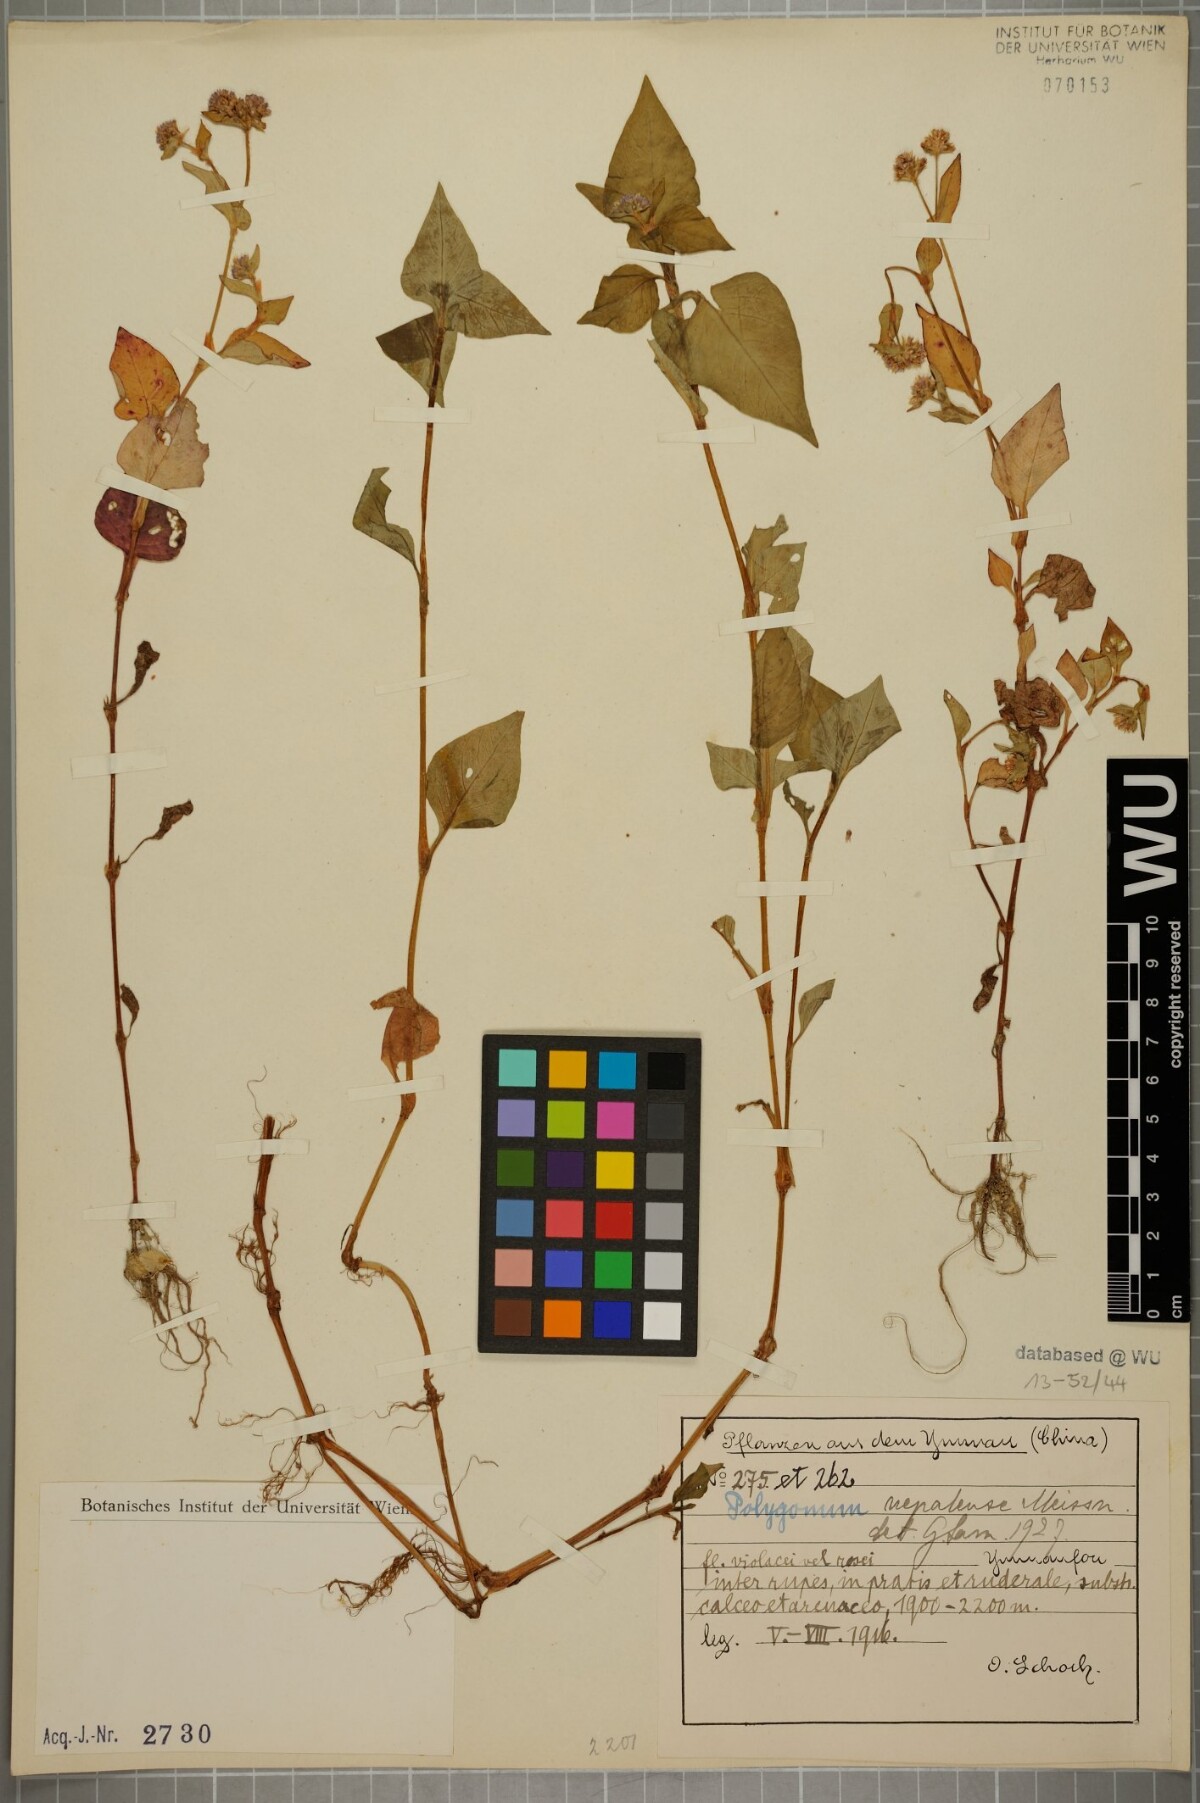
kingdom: Plantae
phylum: Tracheophyta
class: Magnoliopsida
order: Caryophyllales
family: Polygonaceae
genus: Persicaria
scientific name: Persicaria nepalensis
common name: Nepal persicaria
